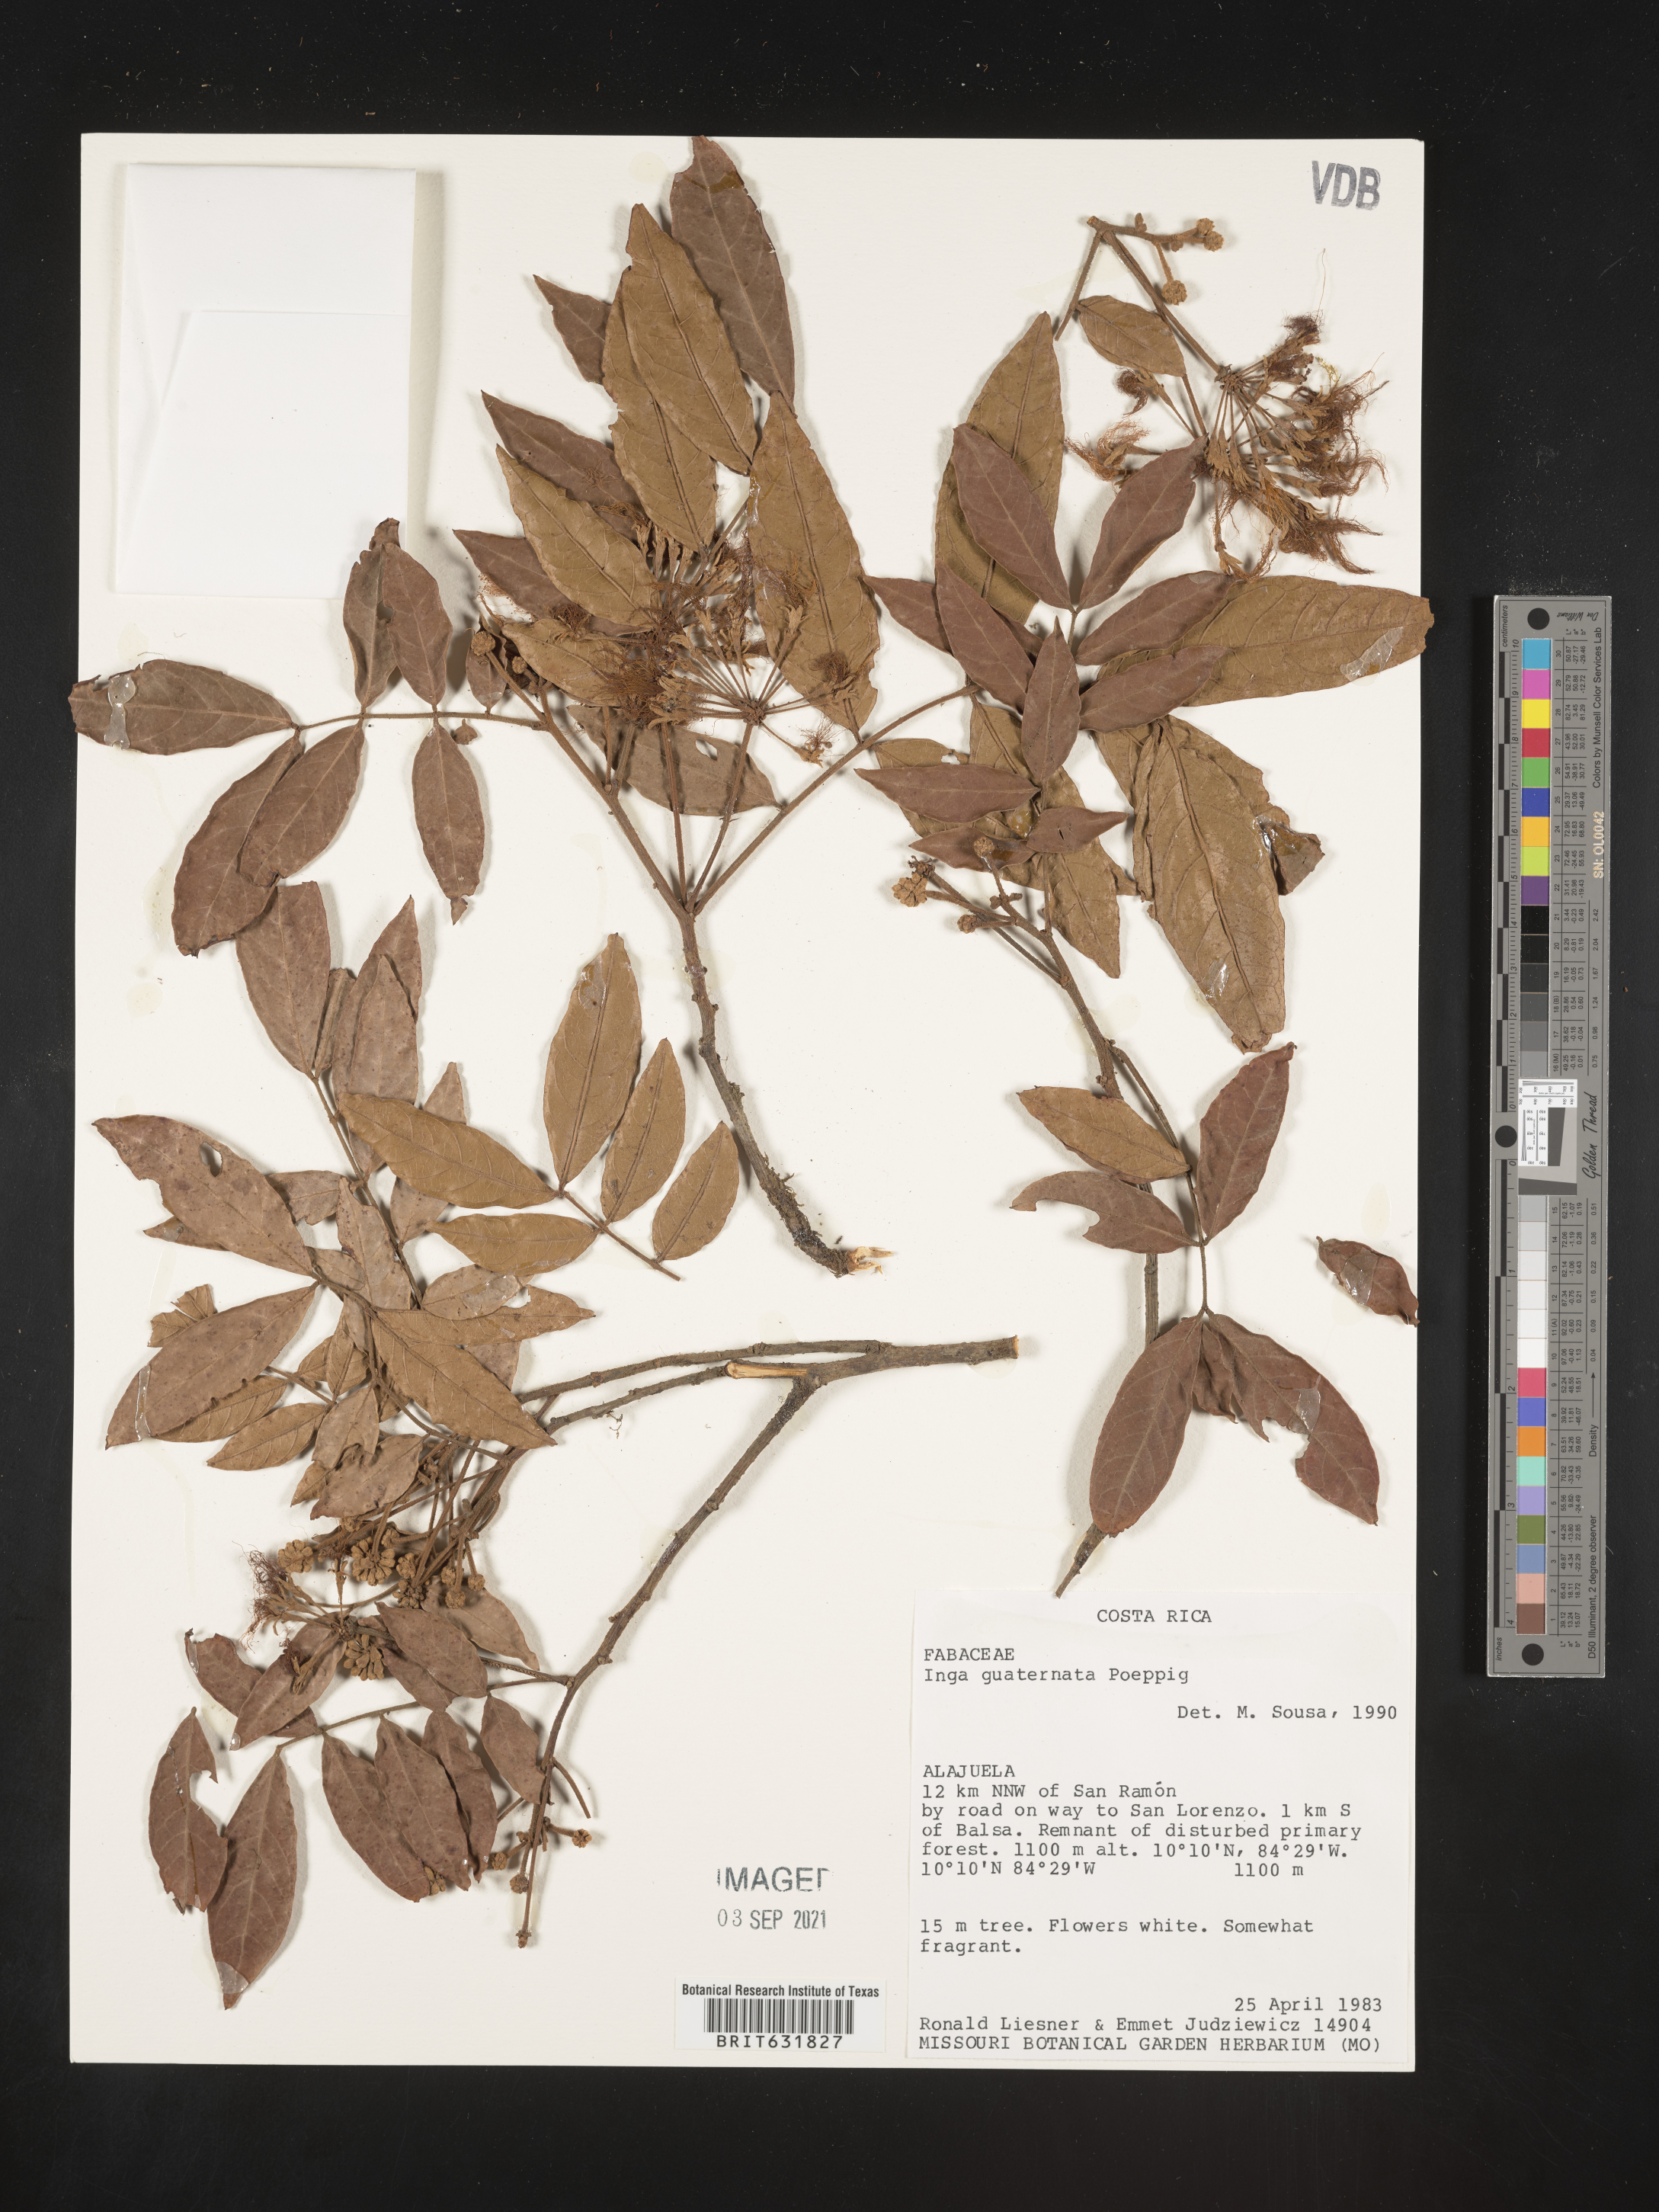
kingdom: Plantae
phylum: Tracheophyta
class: Magnoliopsida
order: Fabales
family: Fabaceae
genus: Inga
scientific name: Inga
